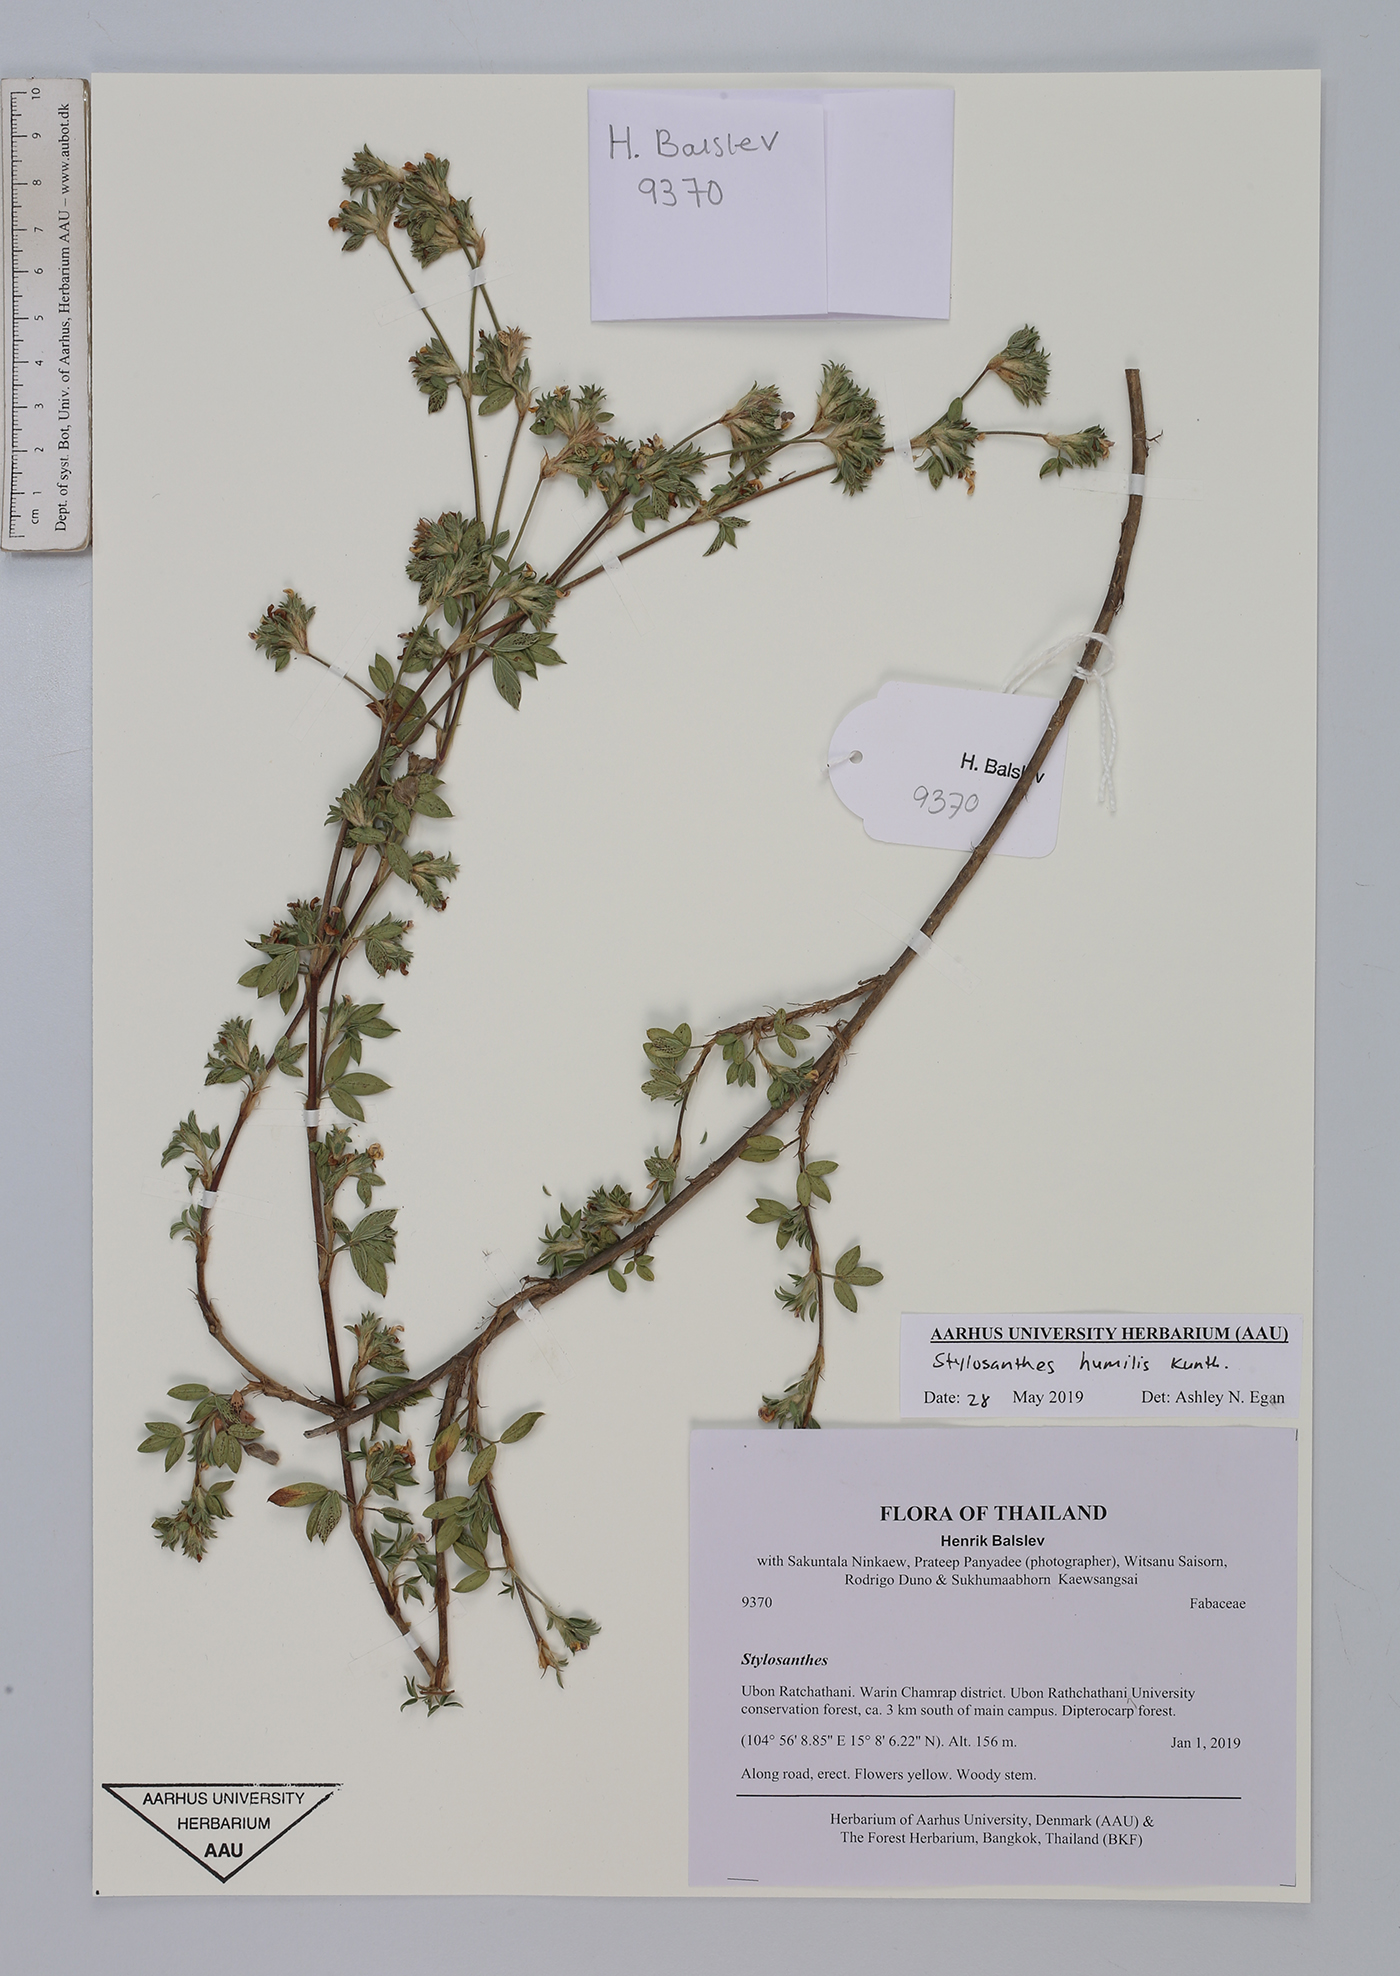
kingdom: Plantae
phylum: Tracheophyta
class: Magnoliopsida
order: Fabales
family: Fabaceae
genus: Stylosanthes
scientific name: Stylosanthes humilis
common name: Townsville stylo
